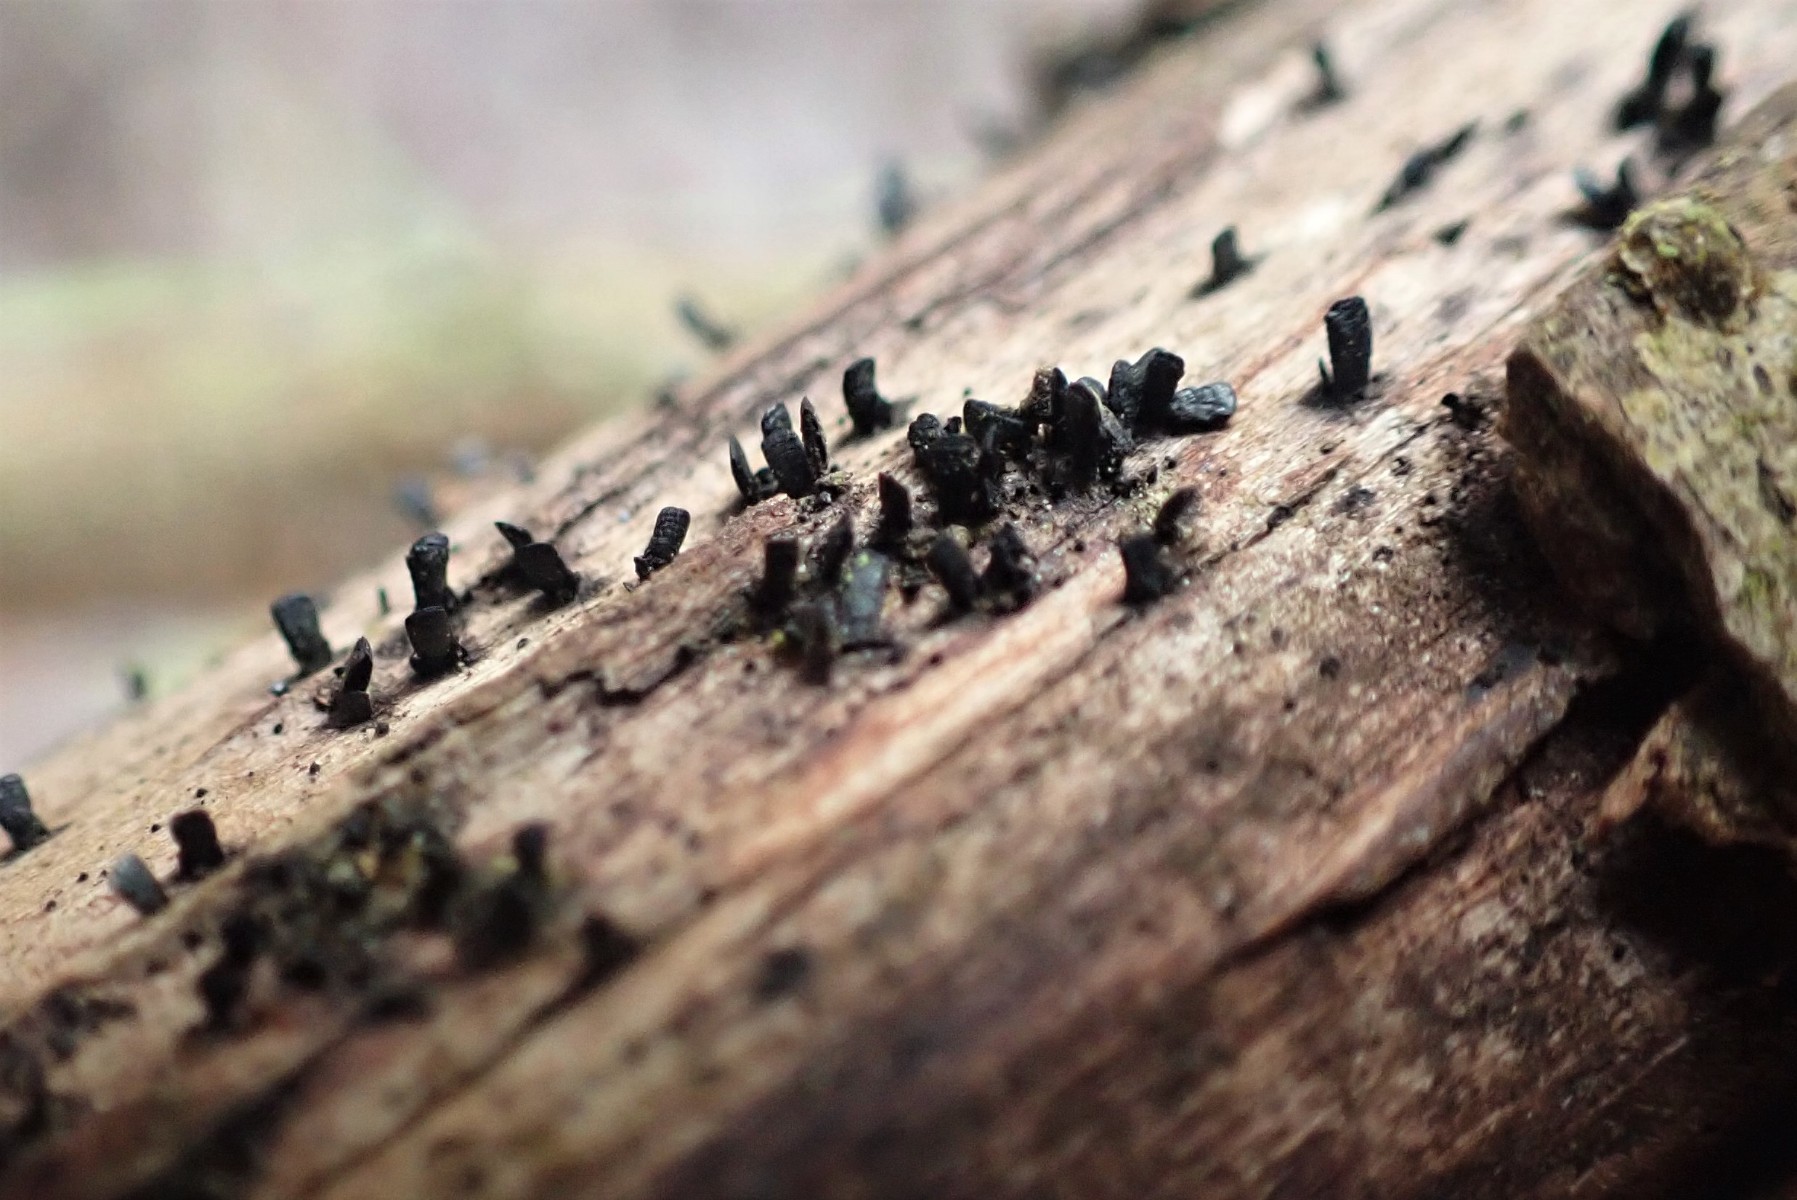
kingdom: Fungi
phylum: Ascomycota
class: Eurotiomycetes
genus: Glyphium
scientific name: Glyphium elatum
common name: kuløkse
